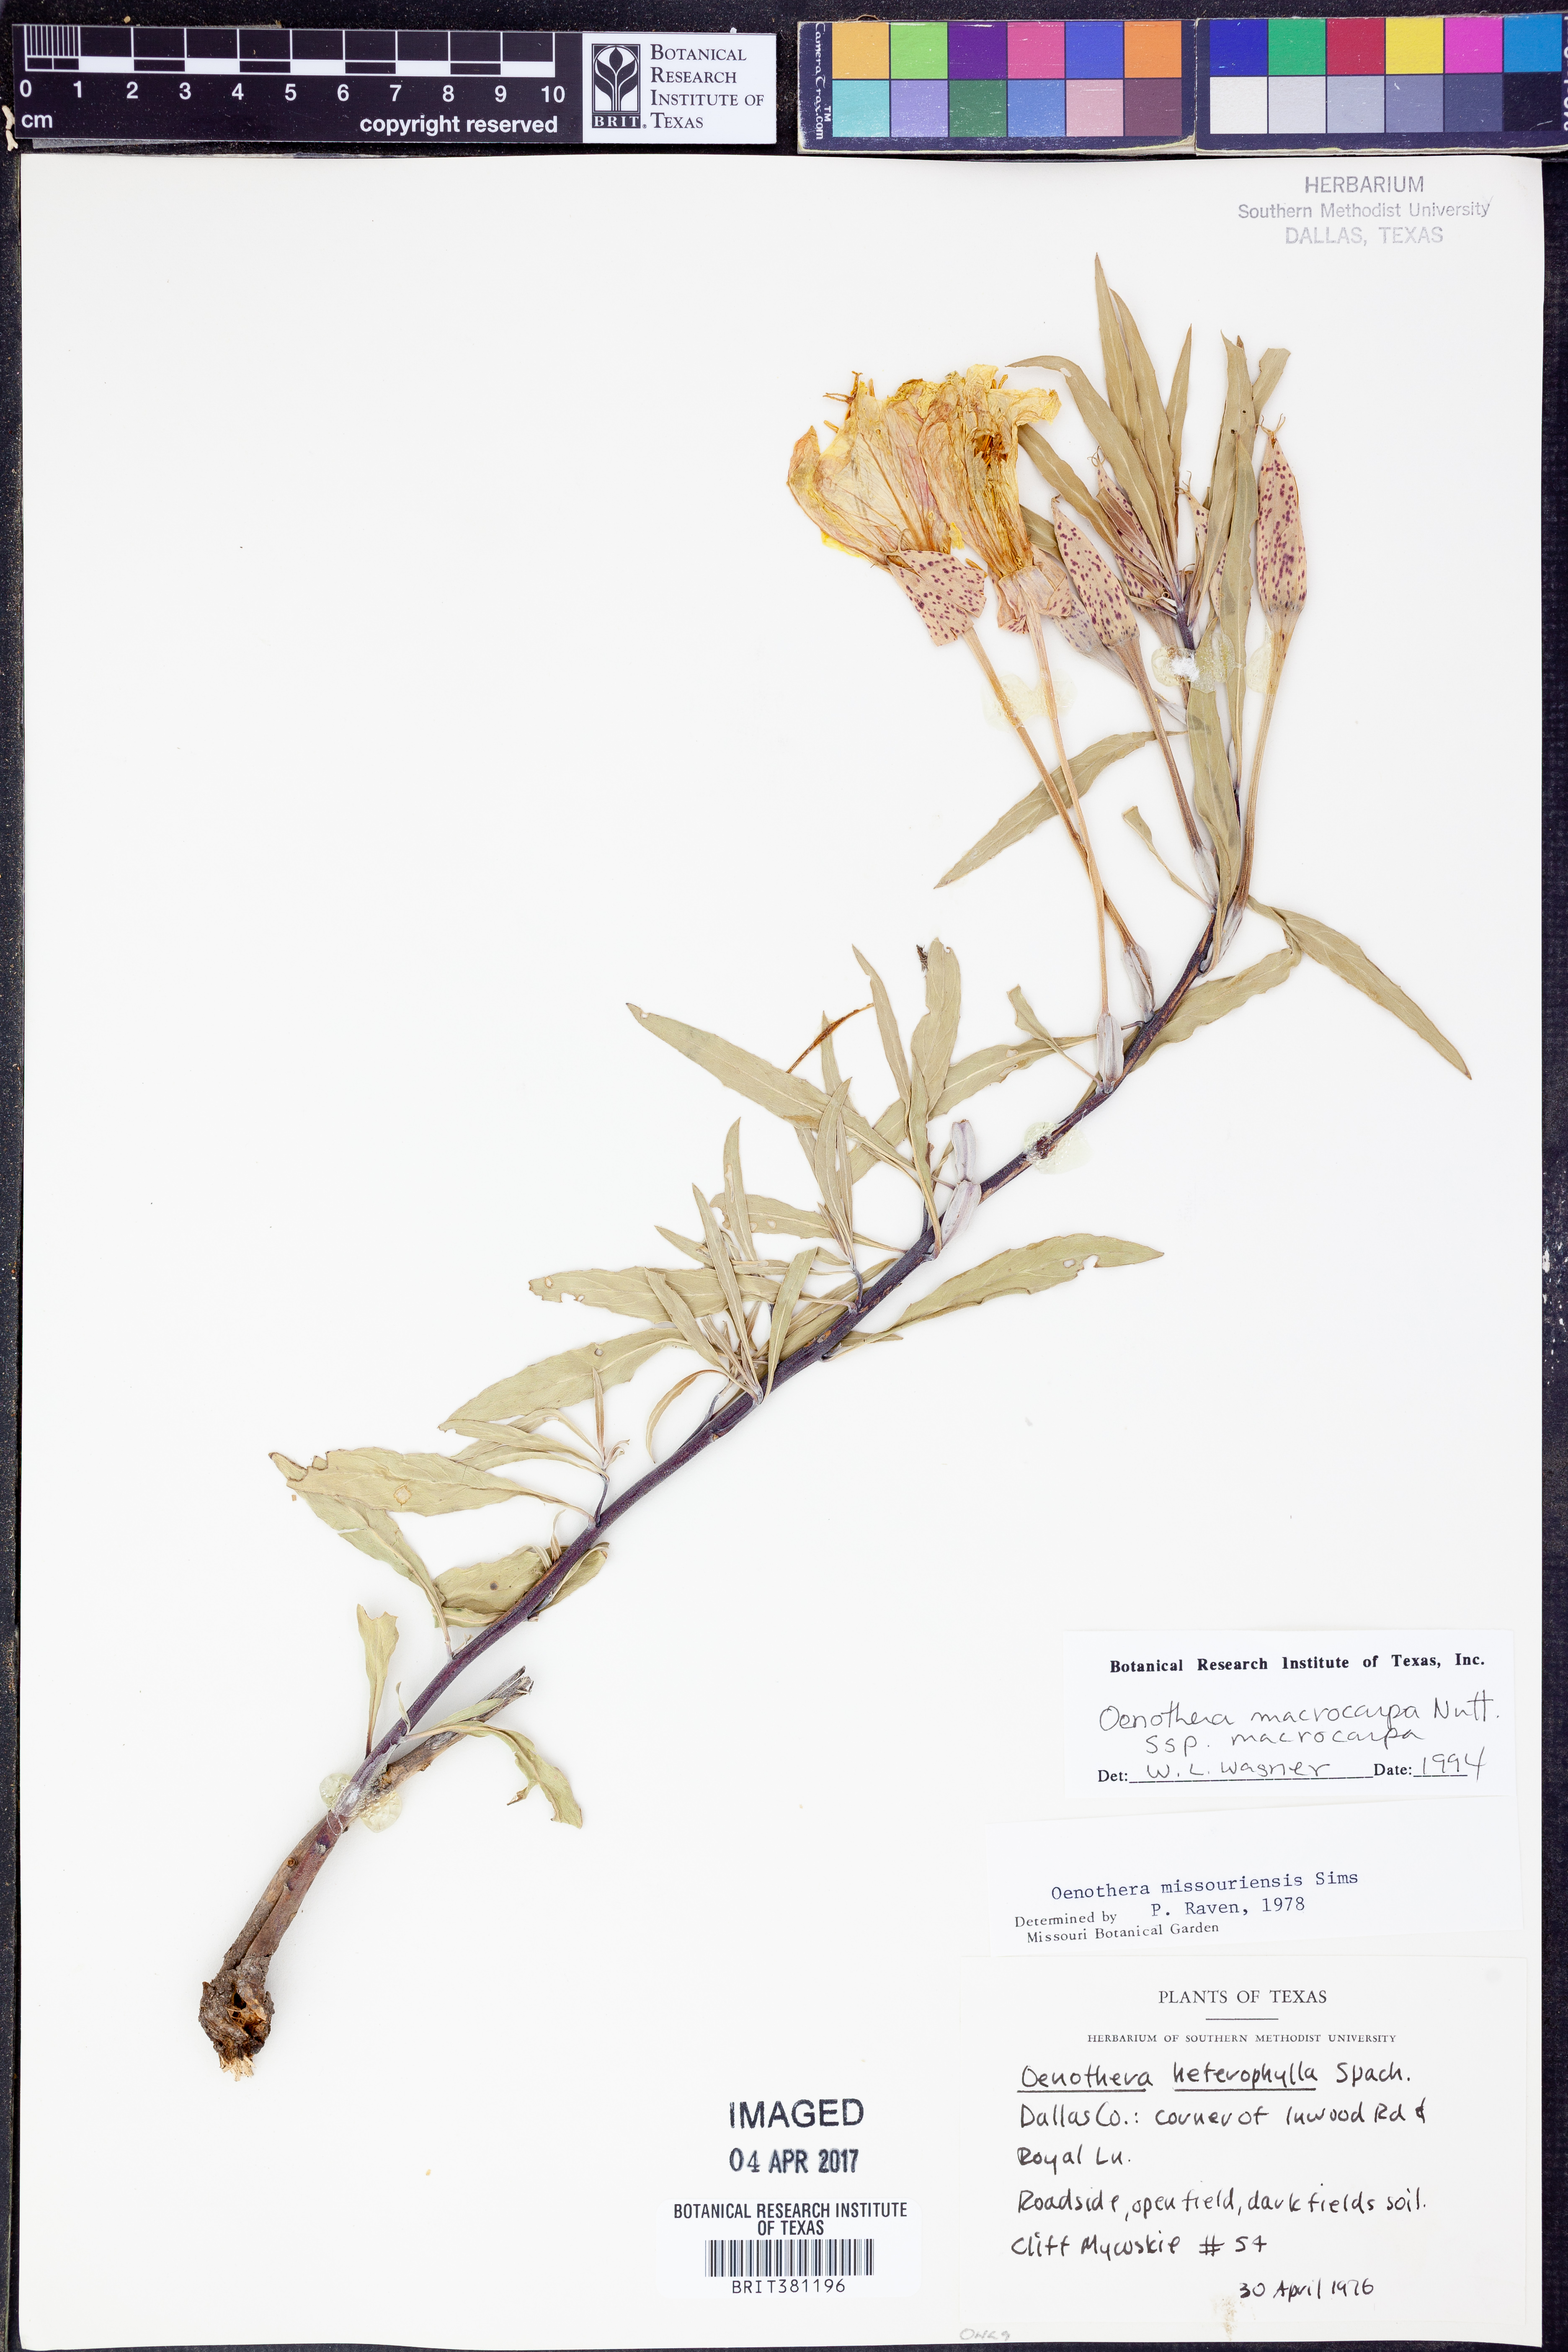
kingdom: Plantae
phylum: Tracheophyta
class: Magnoliopsida
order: Myrtales
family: Onagraceae
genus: Oenothera
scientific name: Oenothera macrocarpa
